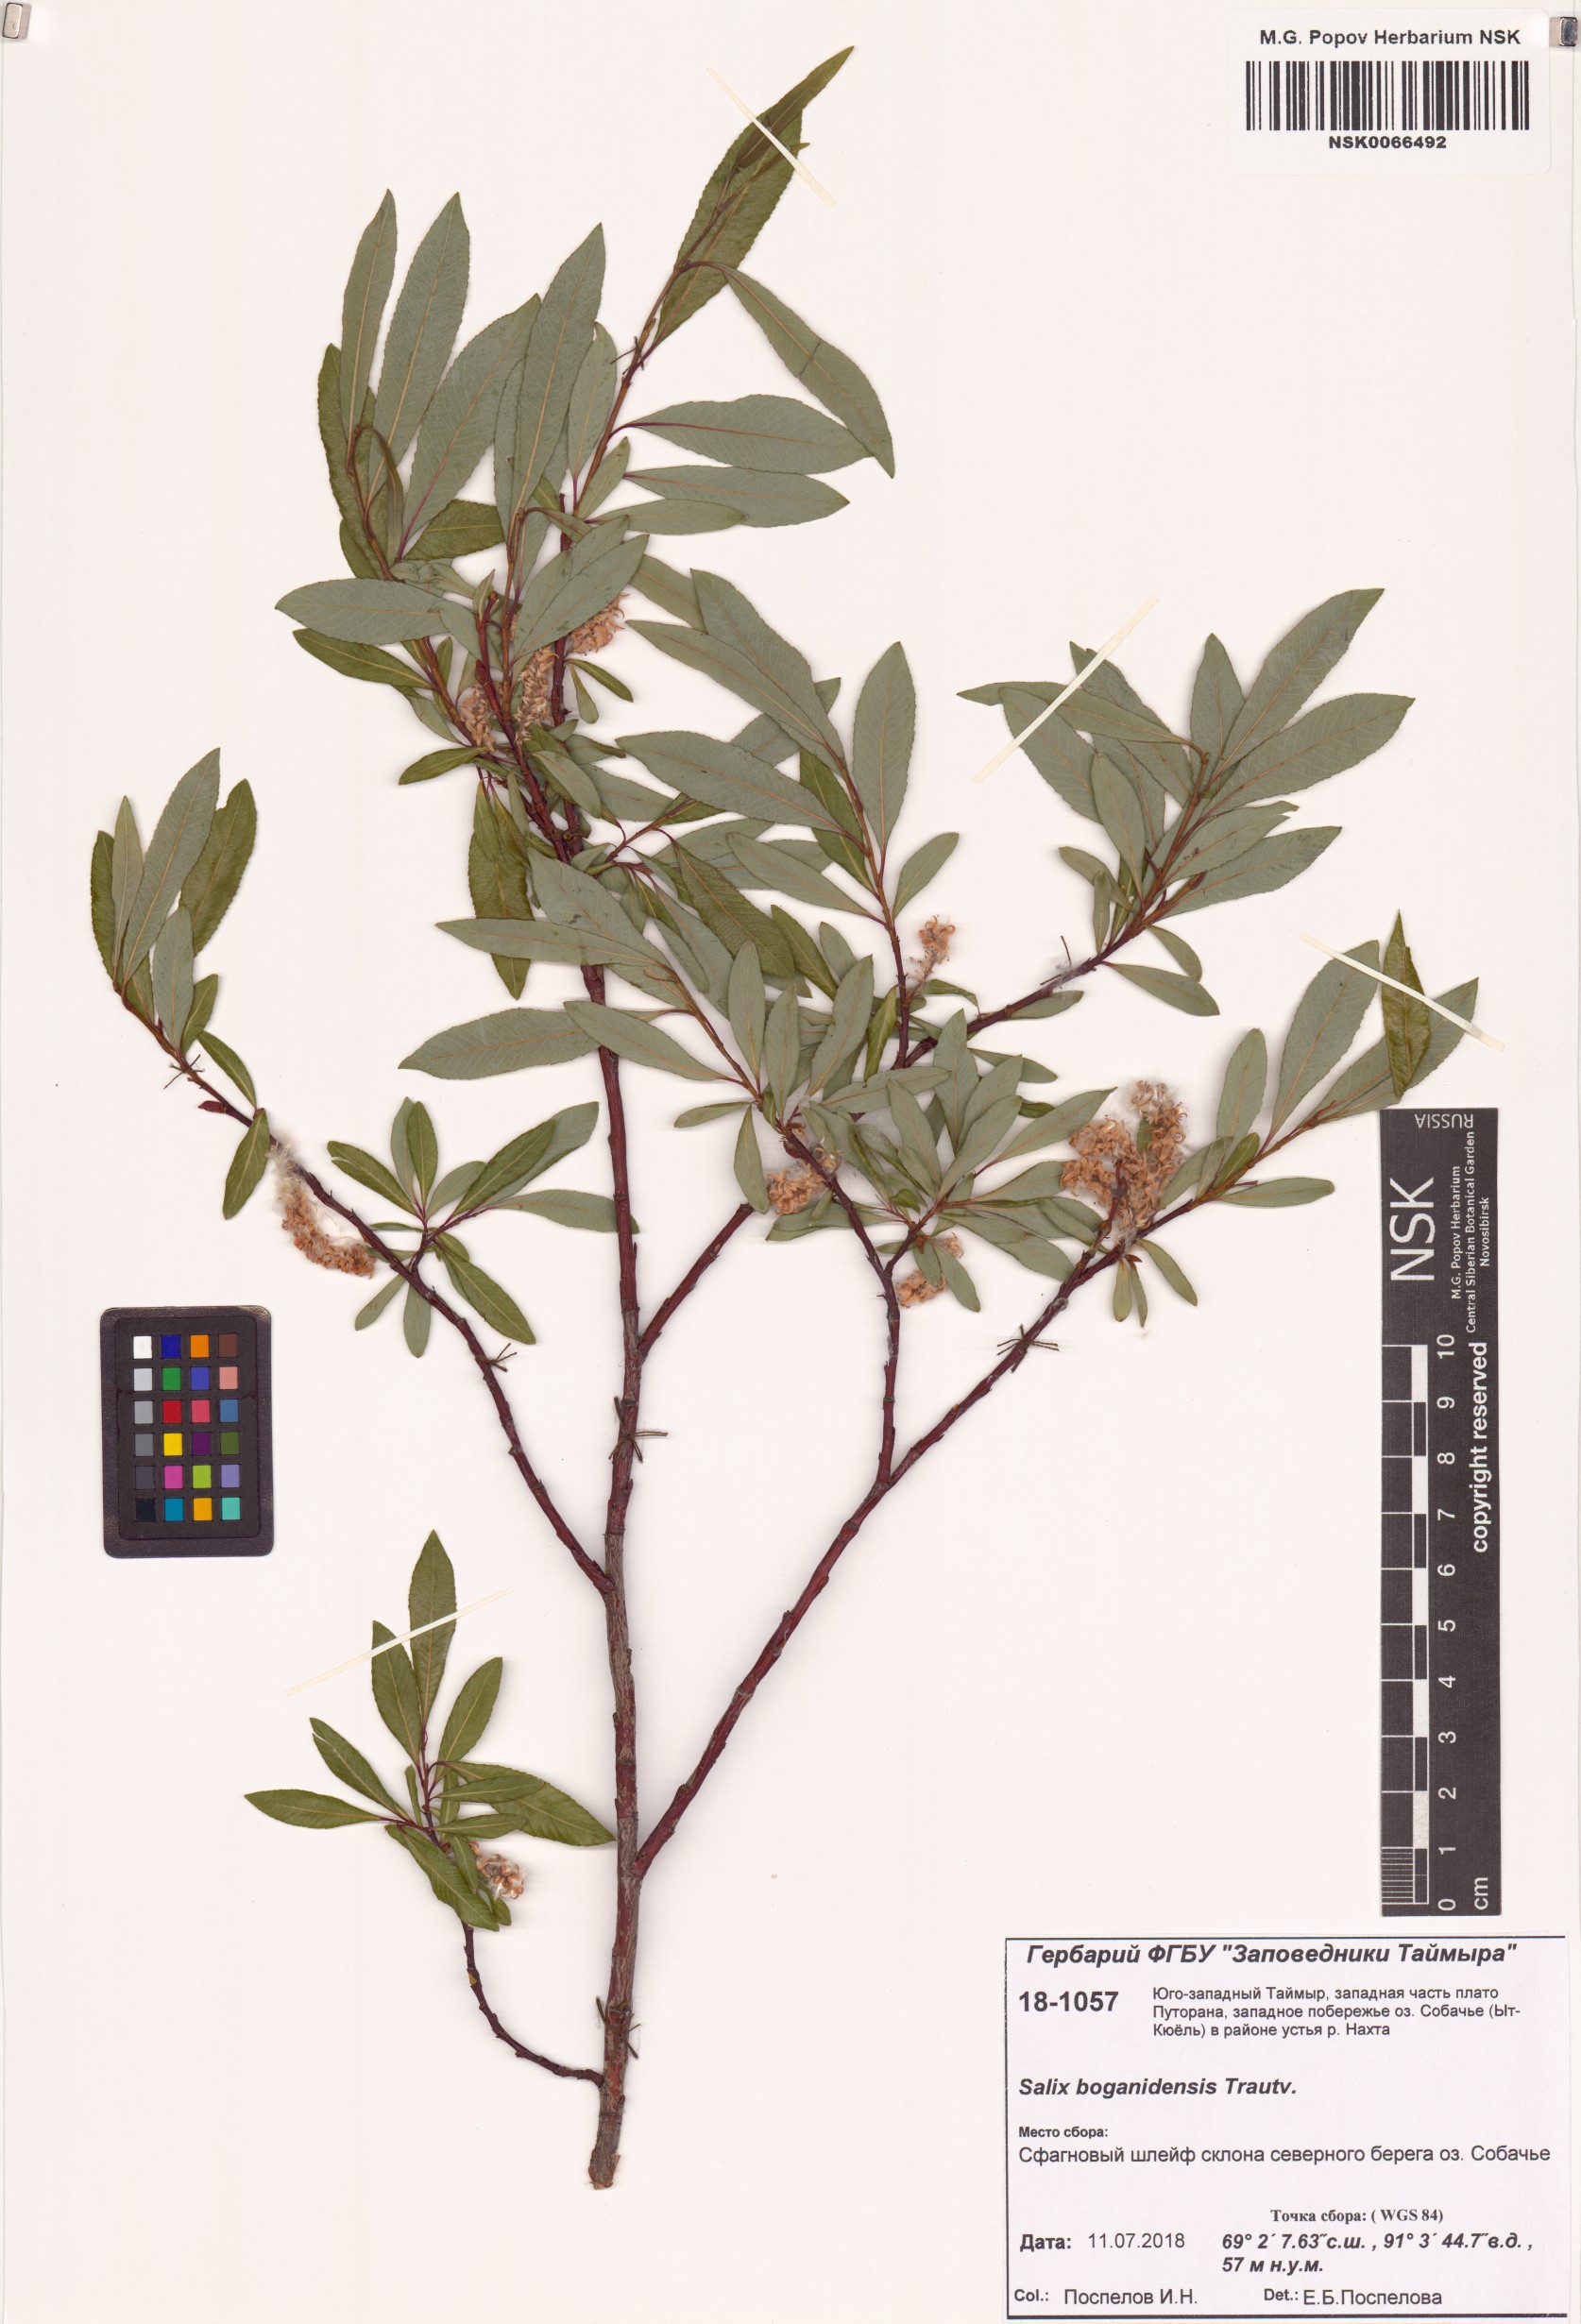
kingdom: Plantae
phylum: Tracheophyta
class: Magnoliopsida
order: Malpighiales
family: Salicaceae
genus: Salix
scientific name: Salix boganidensis
